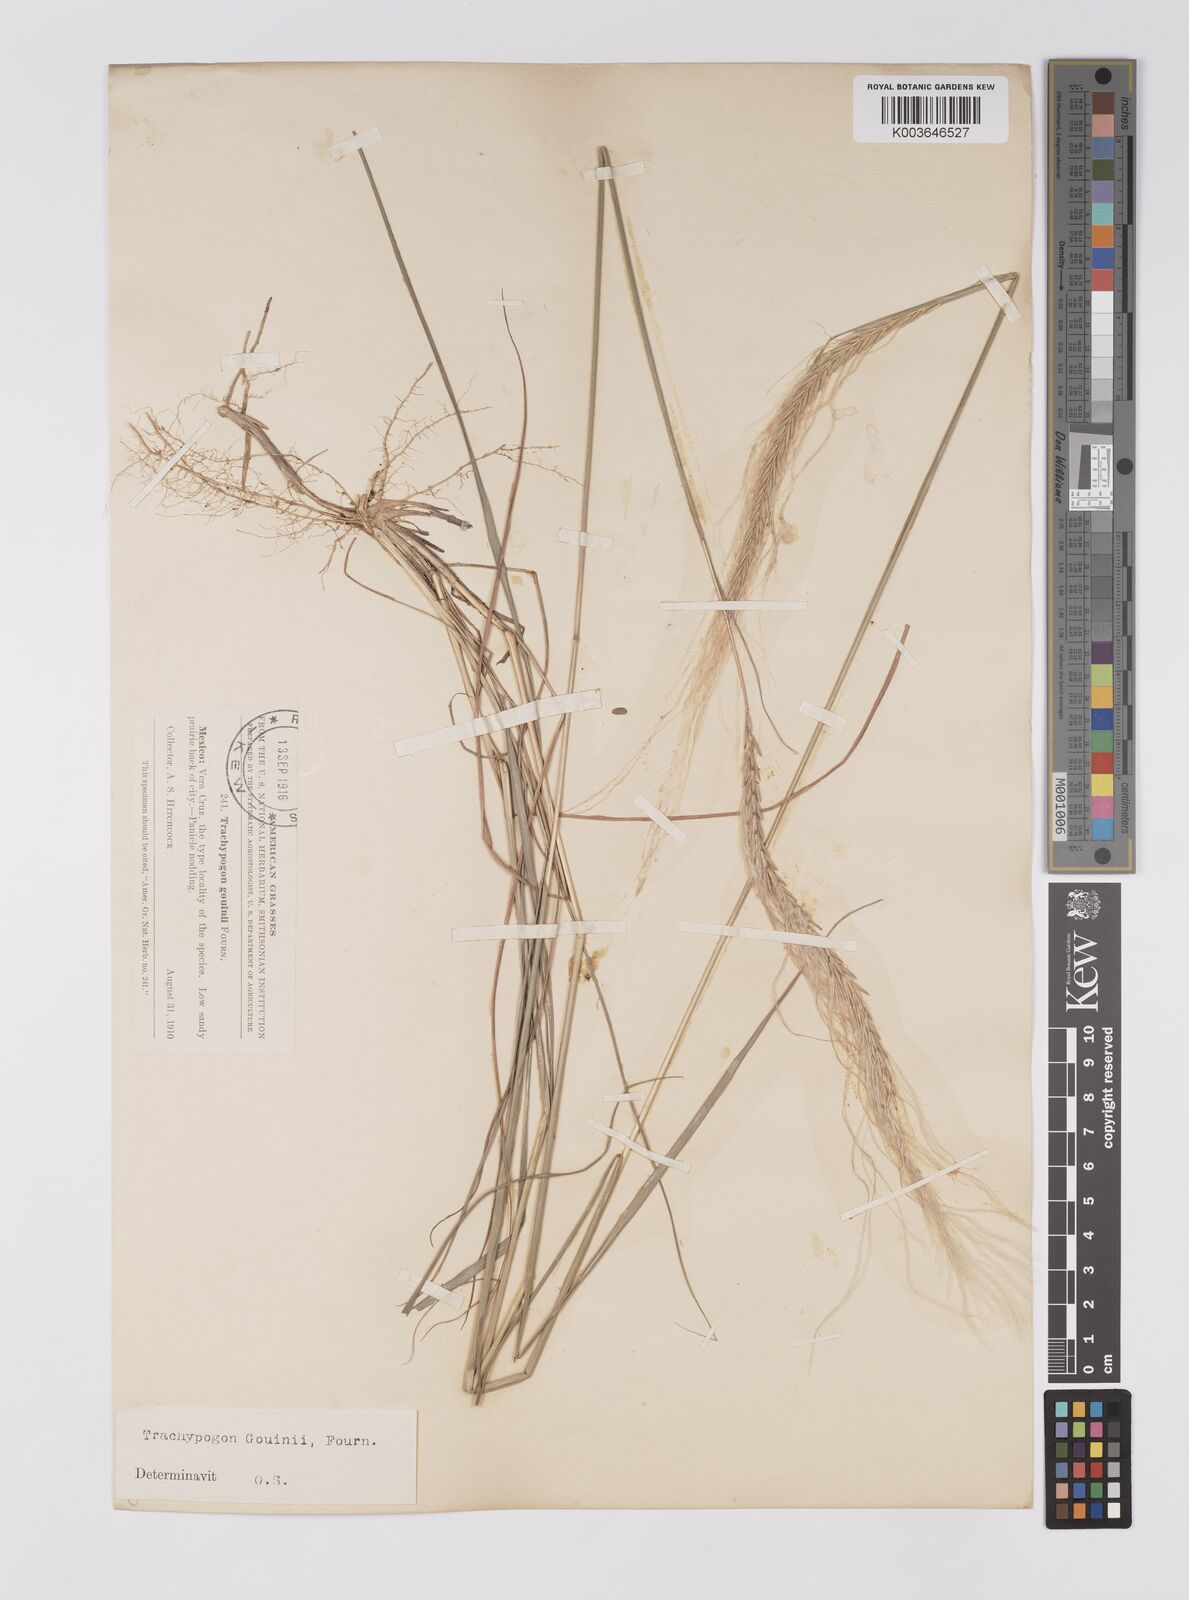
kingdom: Plantae
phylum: Tracheophyta
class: Liliopsida
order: Poales
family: Poaceae
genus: Trachypogon
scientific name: Trachypogon spicatus
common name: Crinkle-awn
